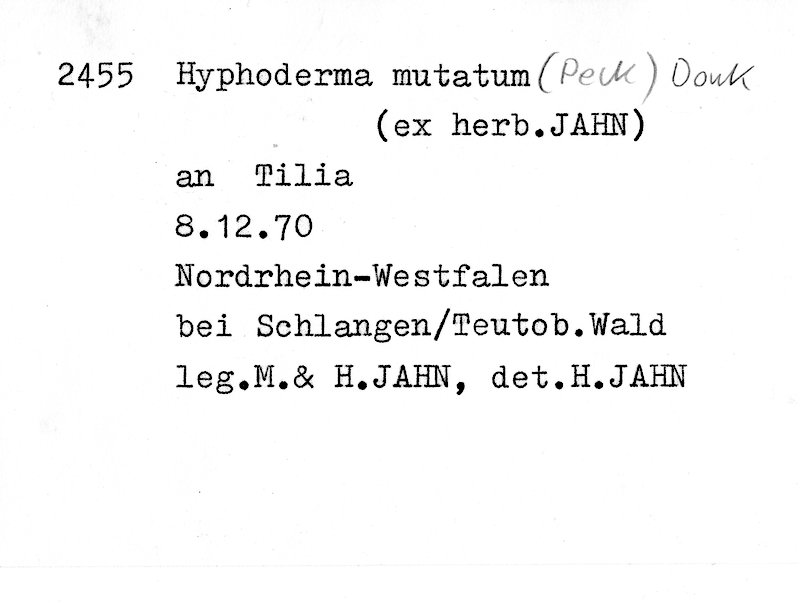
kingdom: Fungi
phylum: Basidiomycota
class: Agaricomycetes
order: Polyporales
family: Hyphodermataceae
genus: Mutatoderma
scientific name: Mutatoderma mutatum
